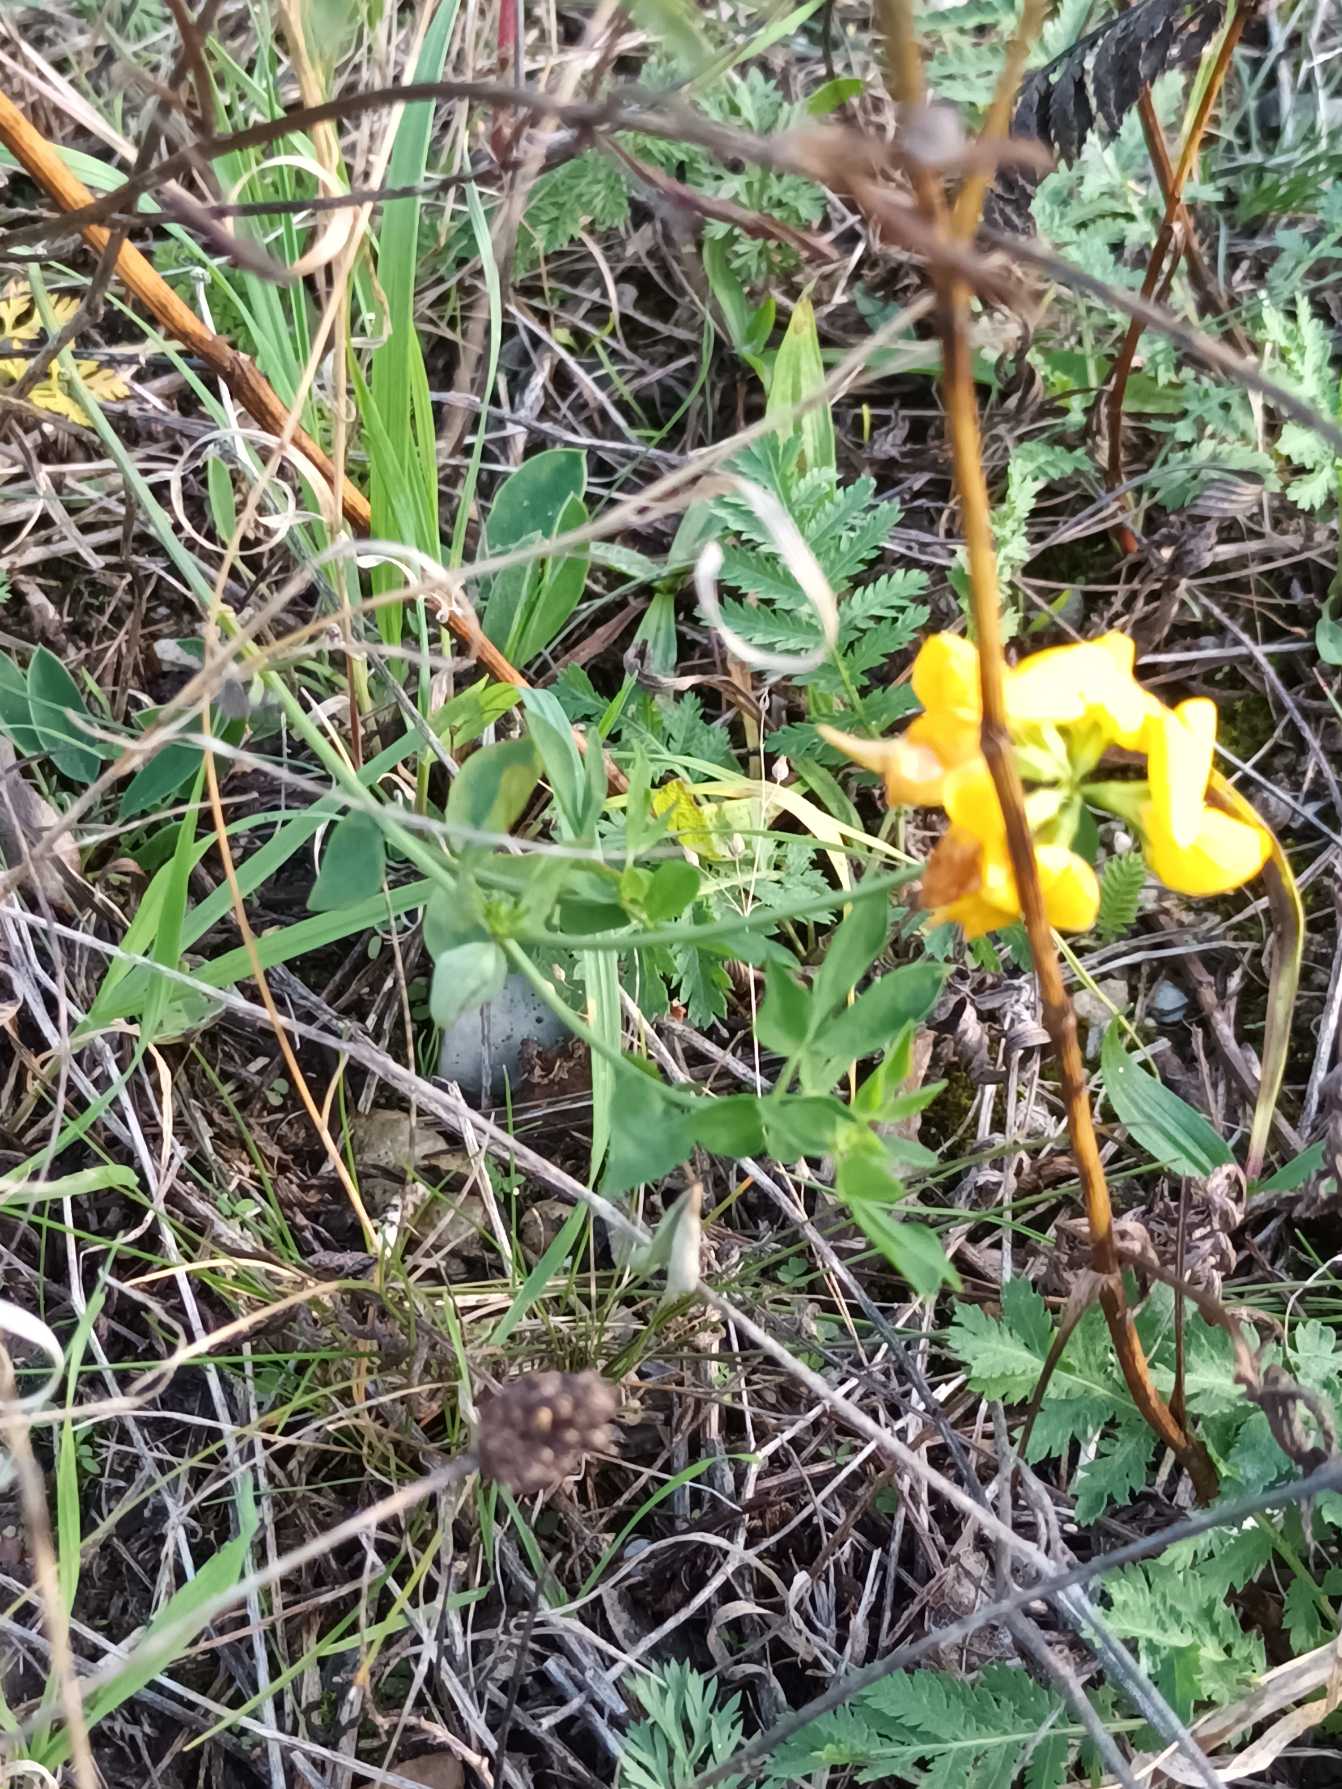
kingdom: Plantae
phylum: Tracheophyta
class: Magnoliopsida
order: Fabales
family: Fabaceae
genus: Lotus
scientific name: Lotus corniculatus
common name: Almindelig kællingetand
